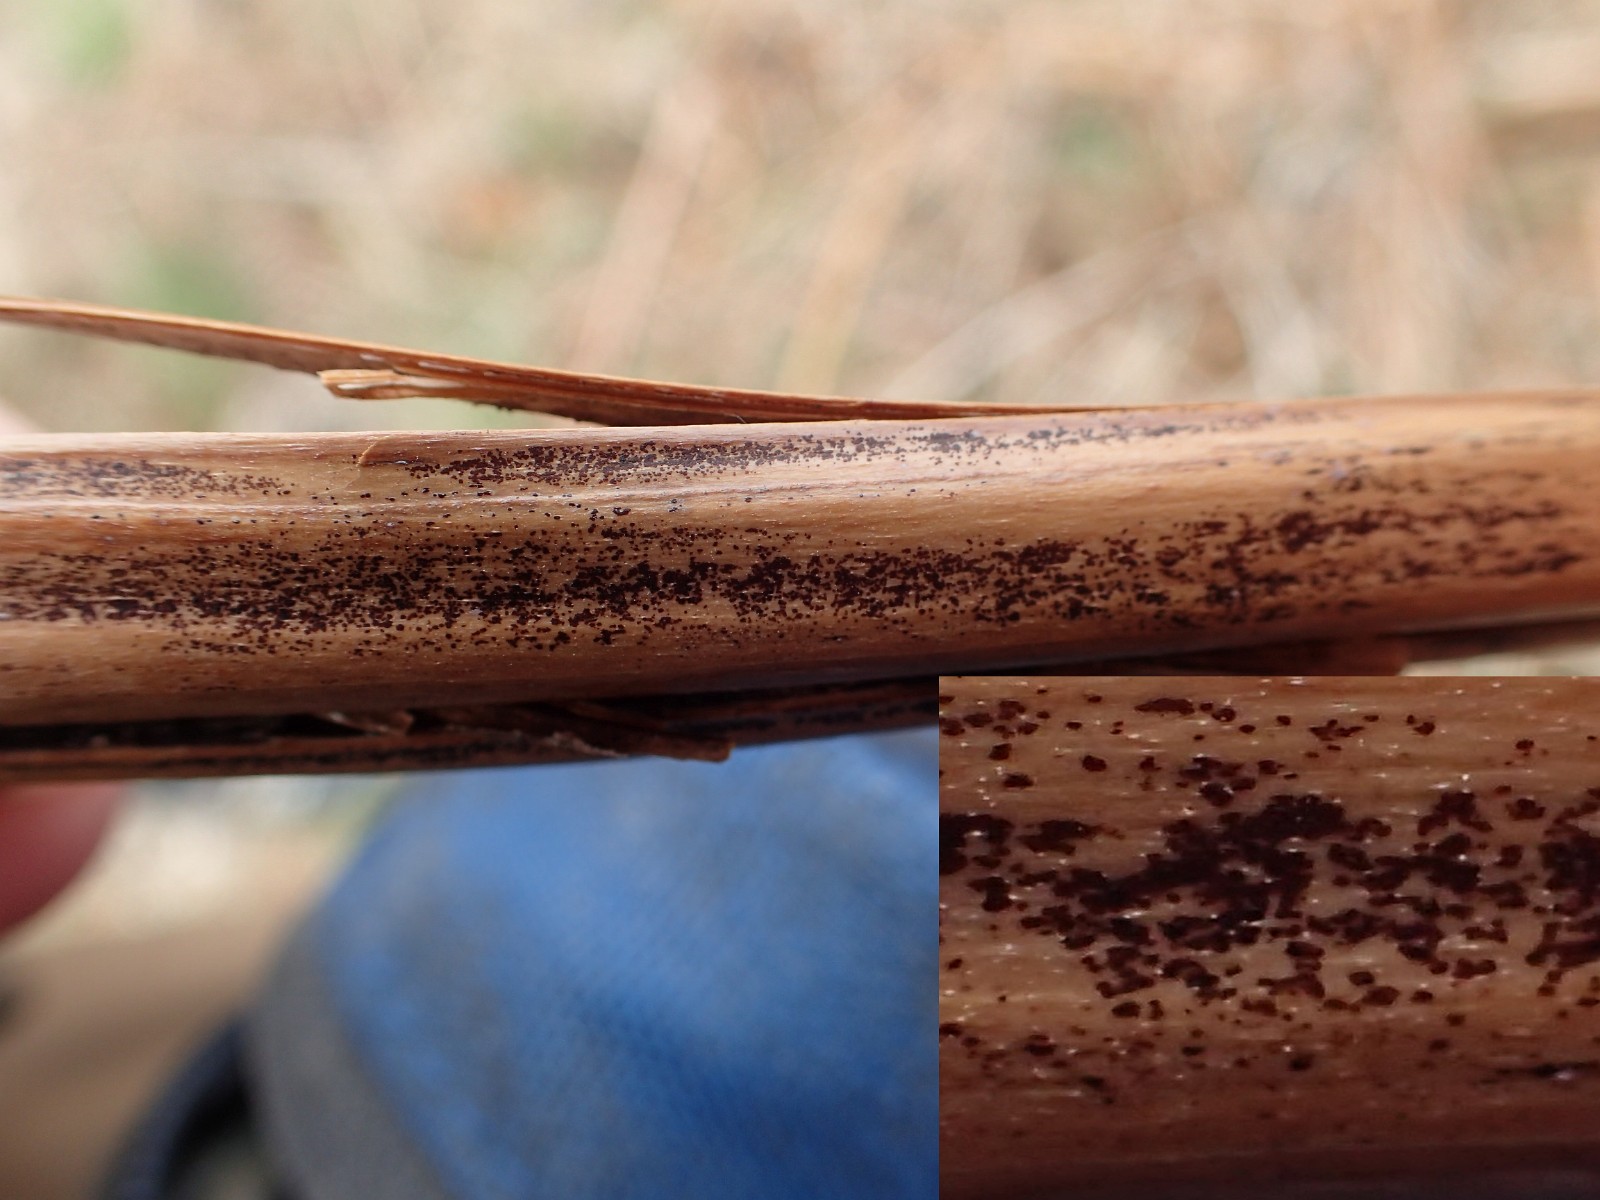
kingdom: Fungi
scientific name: Fungi
